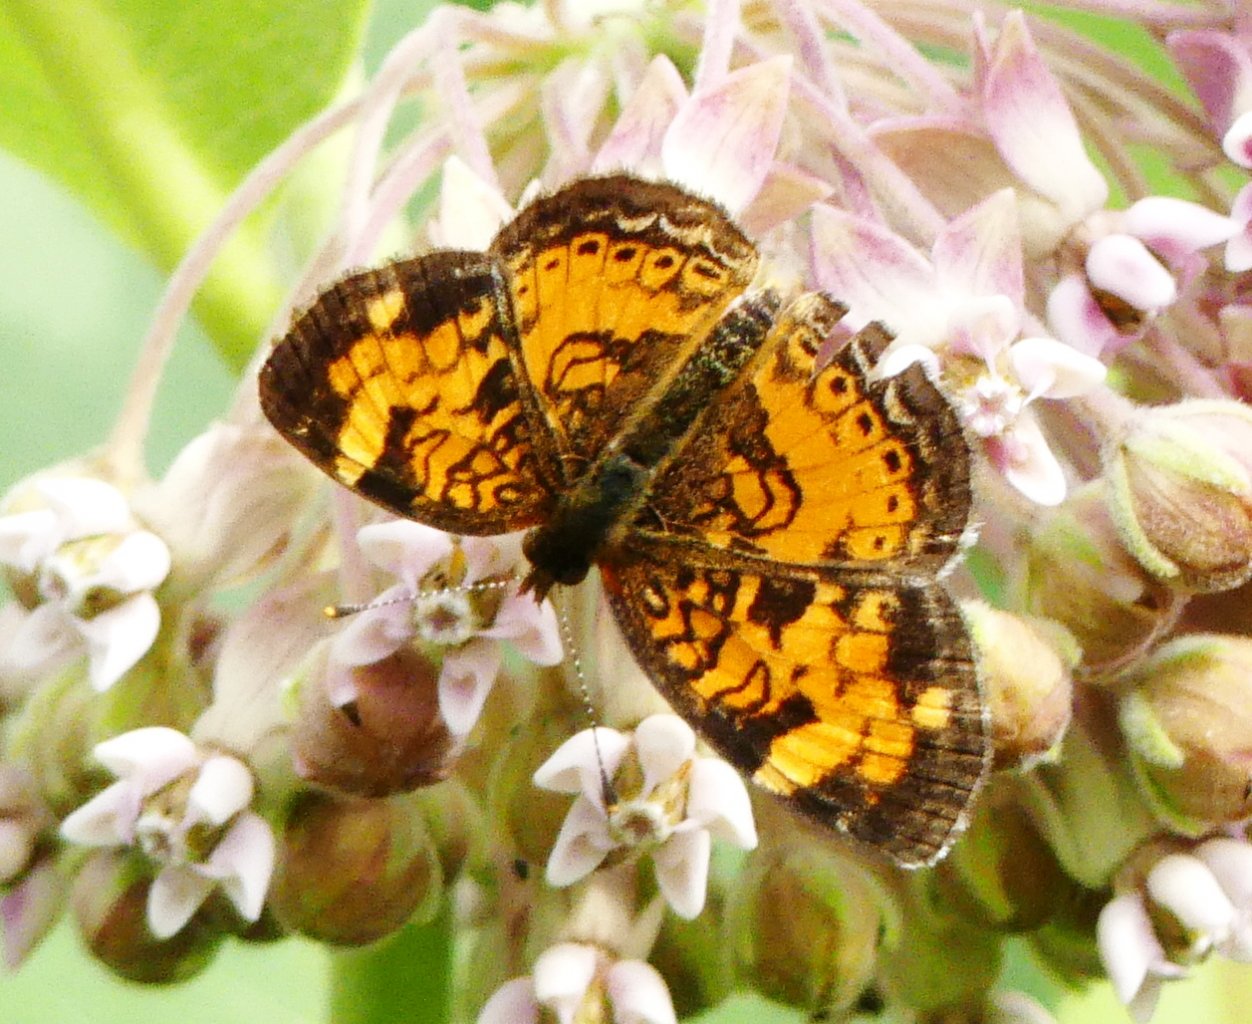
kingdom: Animalia
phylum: Arthropoda
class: Insecta
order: Lepidoptera
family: Nymphalidae
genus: Phyciodes
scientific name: Phyciodes tharos
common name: Northern Crescent
